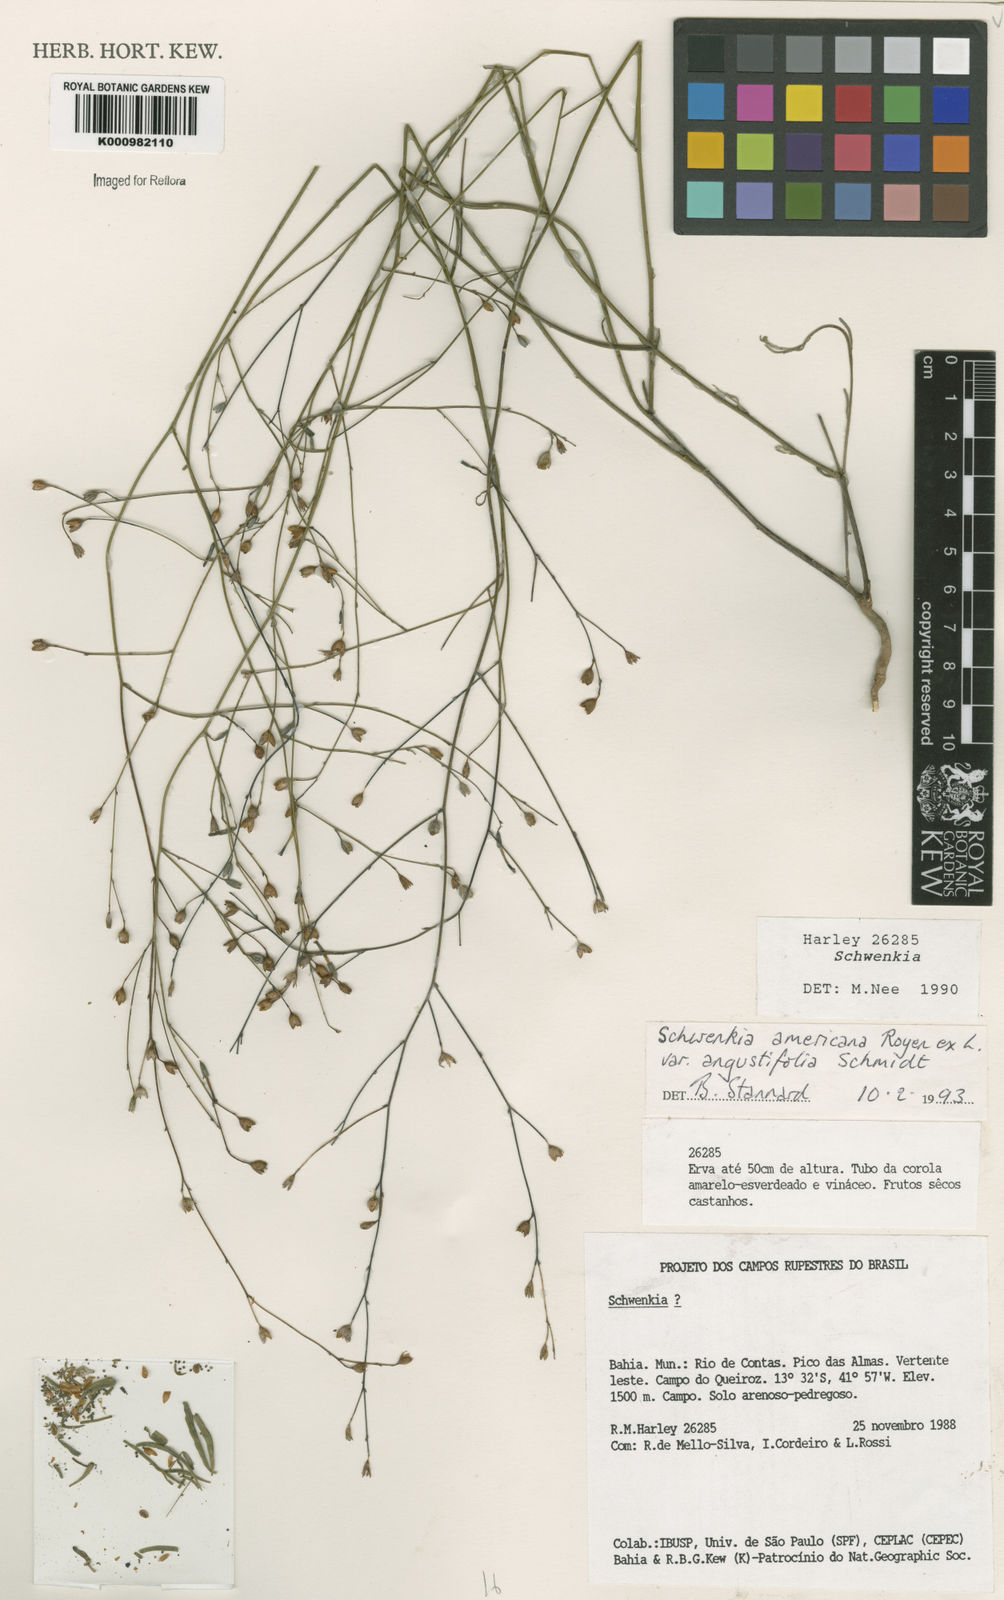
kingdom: Plantae
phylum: Tracheophyta
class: Magnoliopsida
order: Solanales
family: Solanaceae
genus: Schwenckia
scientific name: Schwenckia americana
